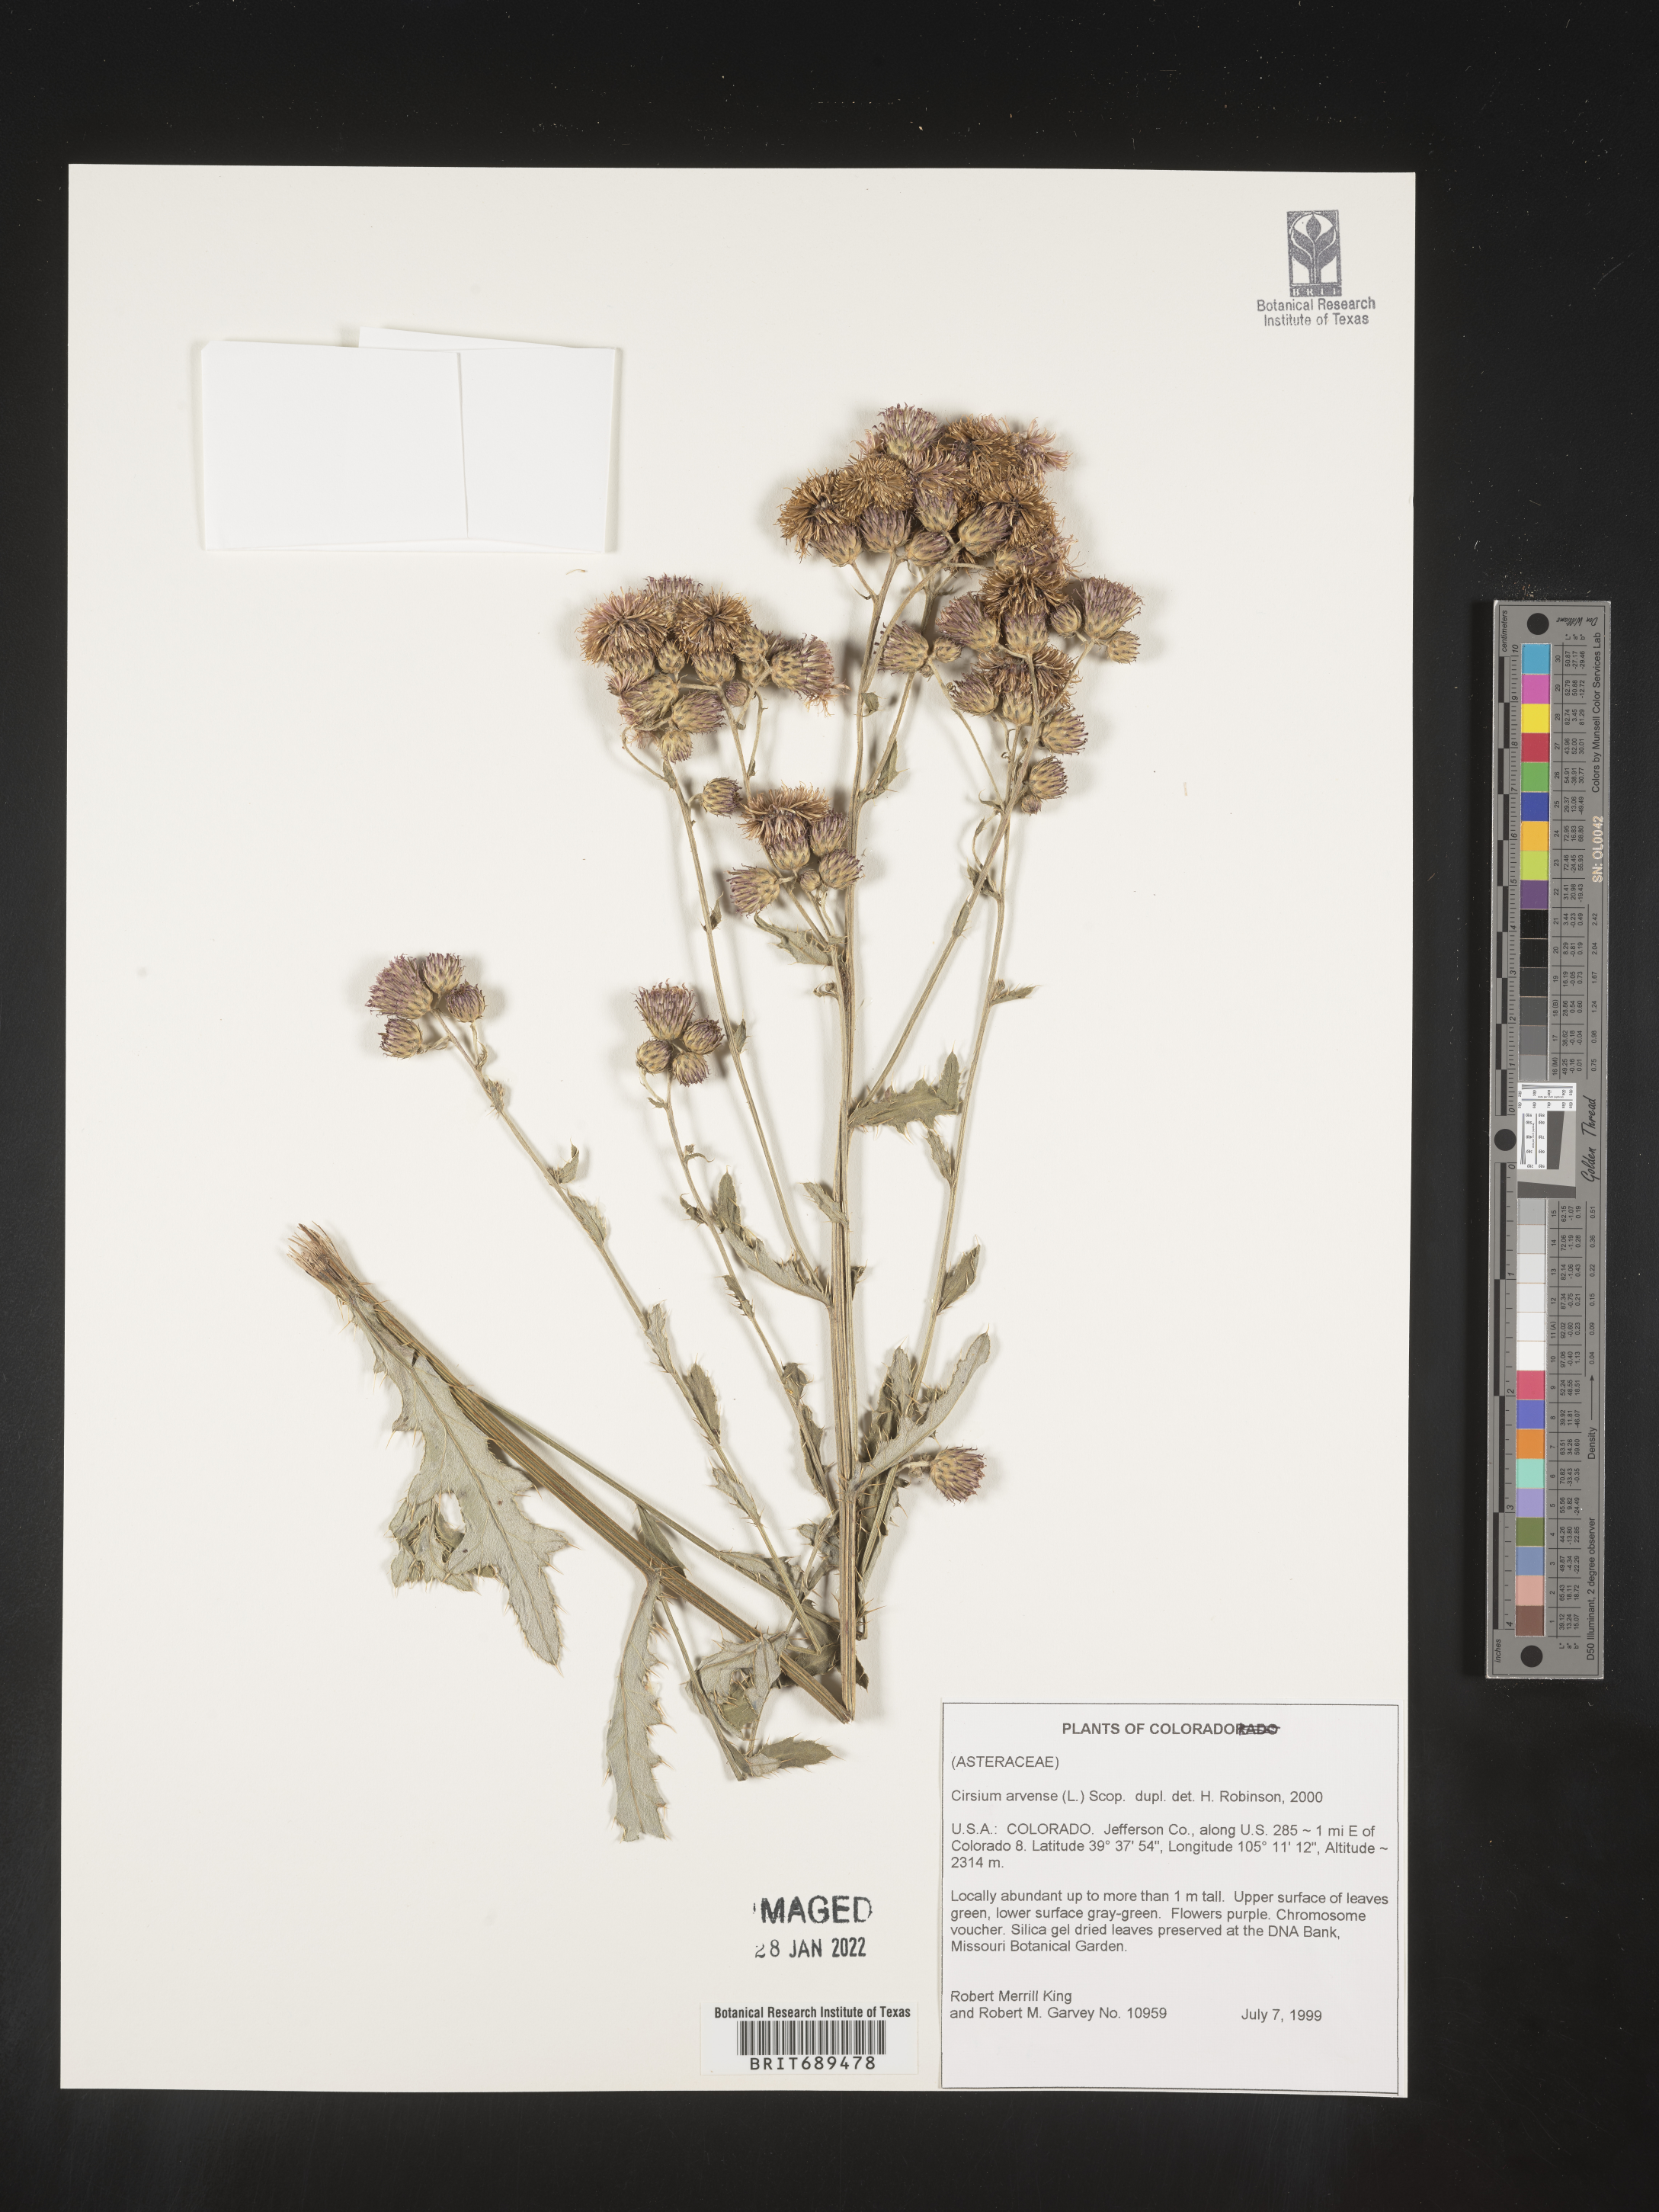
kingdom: Plantae
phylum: Tracheophyta
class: Magnoliopsida
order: Asterales
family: Asteraceae
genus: Cirsium
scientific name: Cirsium arvense
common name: Creeping thistle
